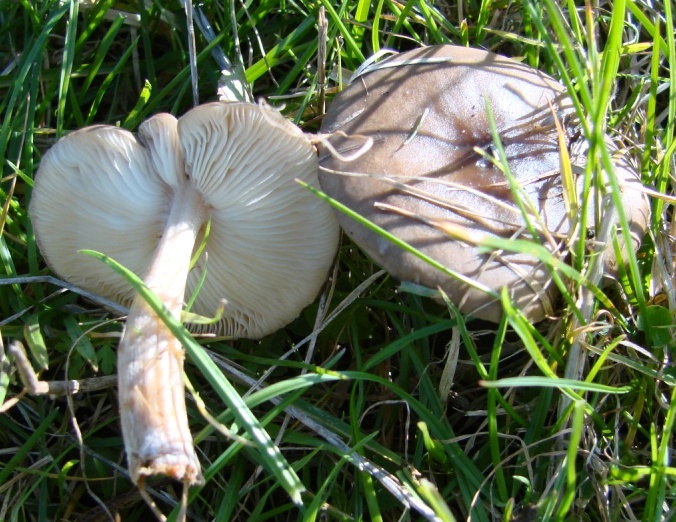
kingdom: Fungi
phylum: Basidiomycota
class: Agaricomycetes
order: Agaricales
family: Tricholomataceae
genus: Melanoleuca
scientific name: Melanoleuca polioleuca
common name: almindelig munkehat
